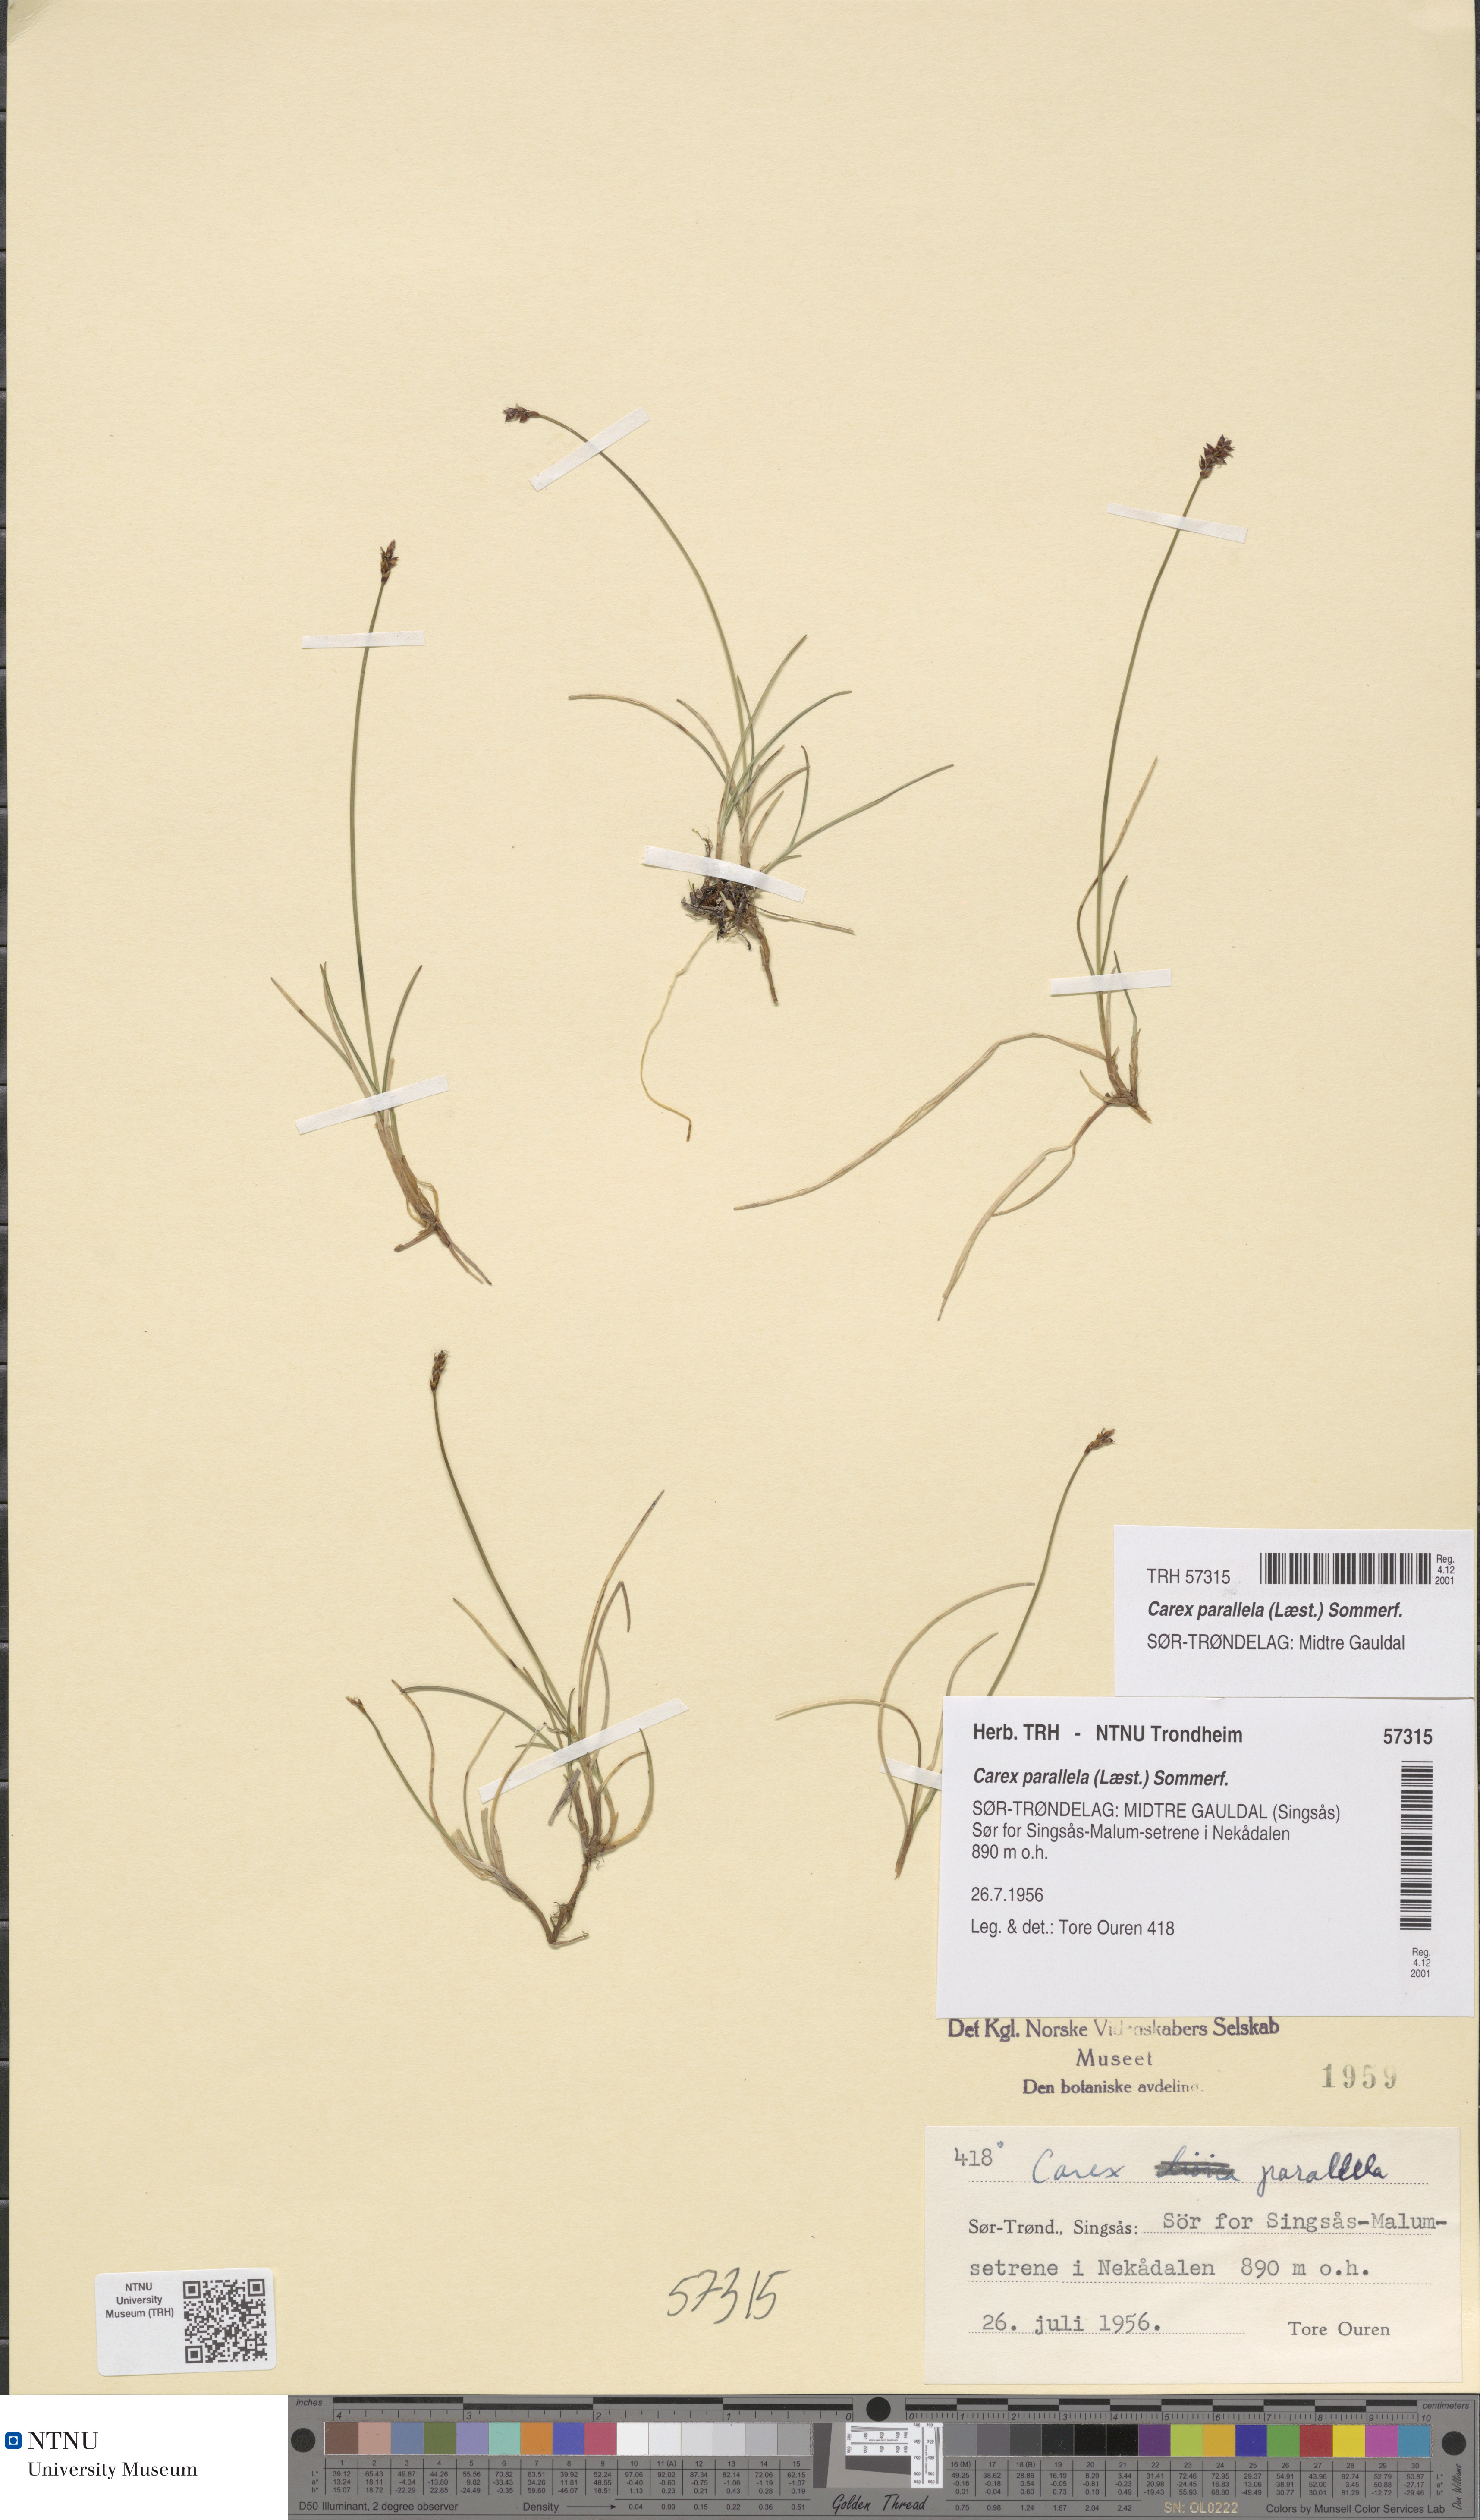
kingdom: Plantae
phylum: Tracheophyta
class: Liliopsida
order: Poales
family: Cyperaceae
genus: Carex
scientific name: Carex parallela
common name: Parallel sedge
